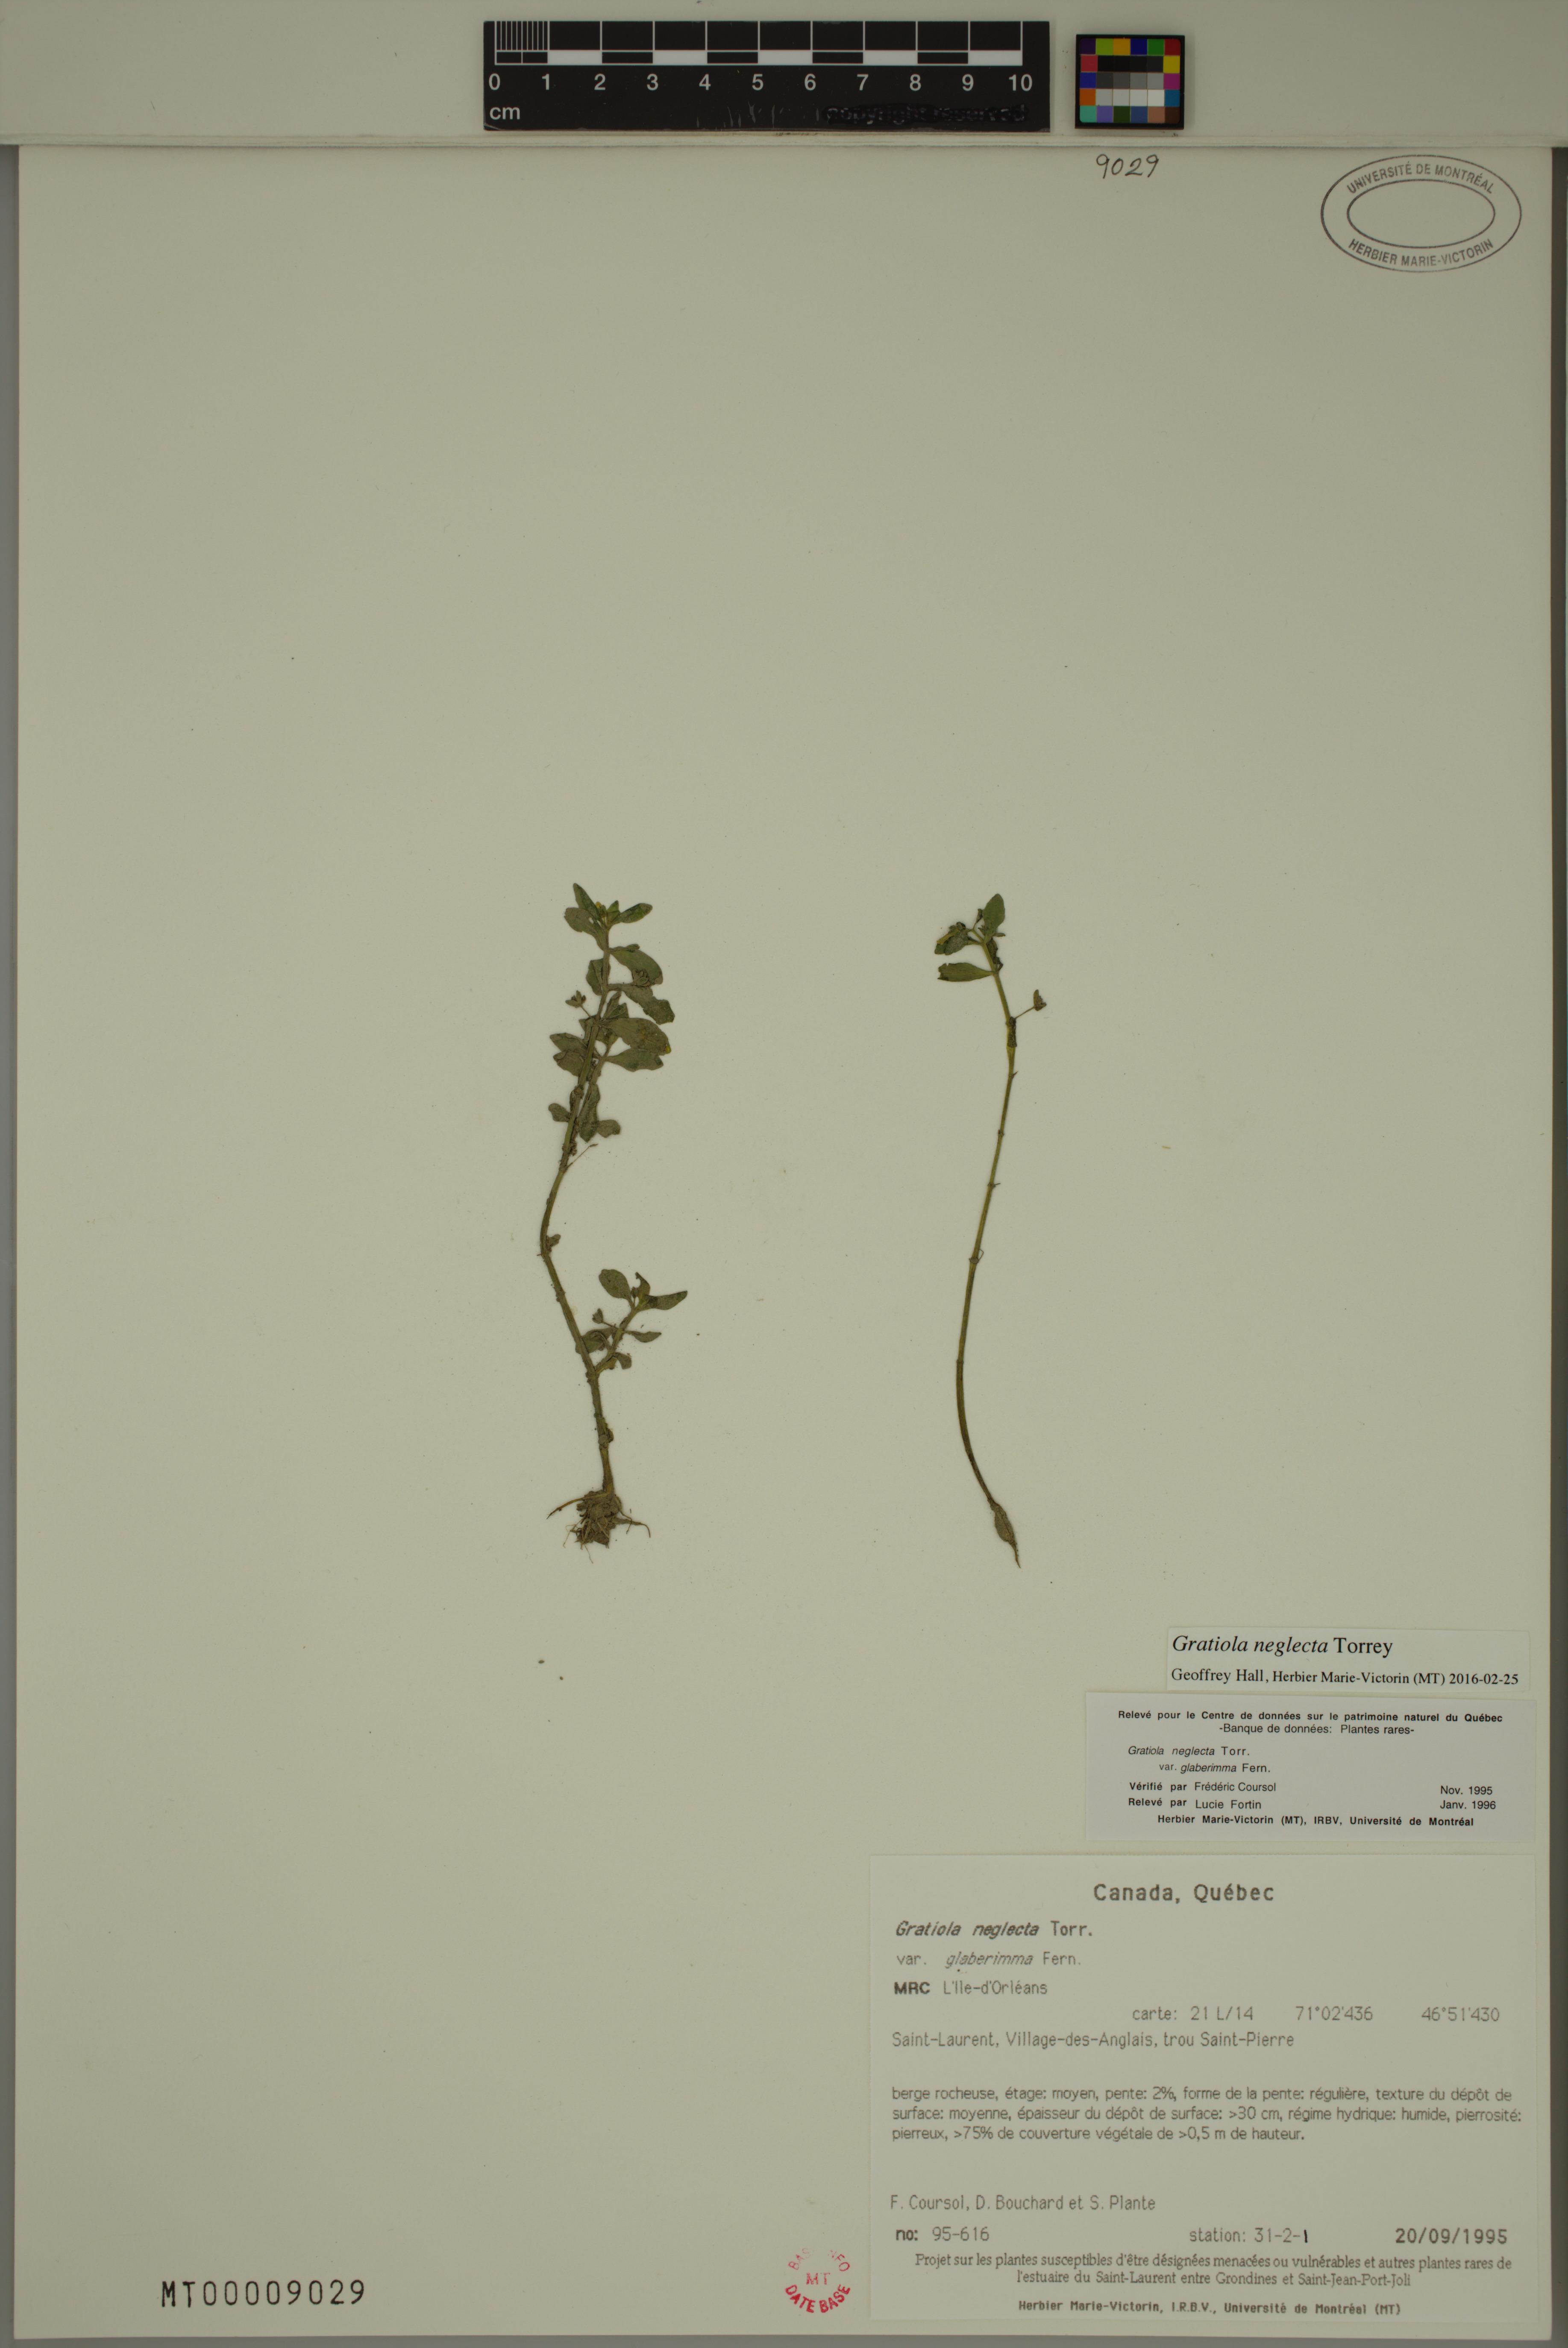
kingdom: Plantae
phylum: Tracheophyta
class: Magnoliopsida
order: Lamiales
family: Plantaginaceae
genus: Gratiola
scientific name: Gratiola neglecta
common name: American hedge-hyssop
